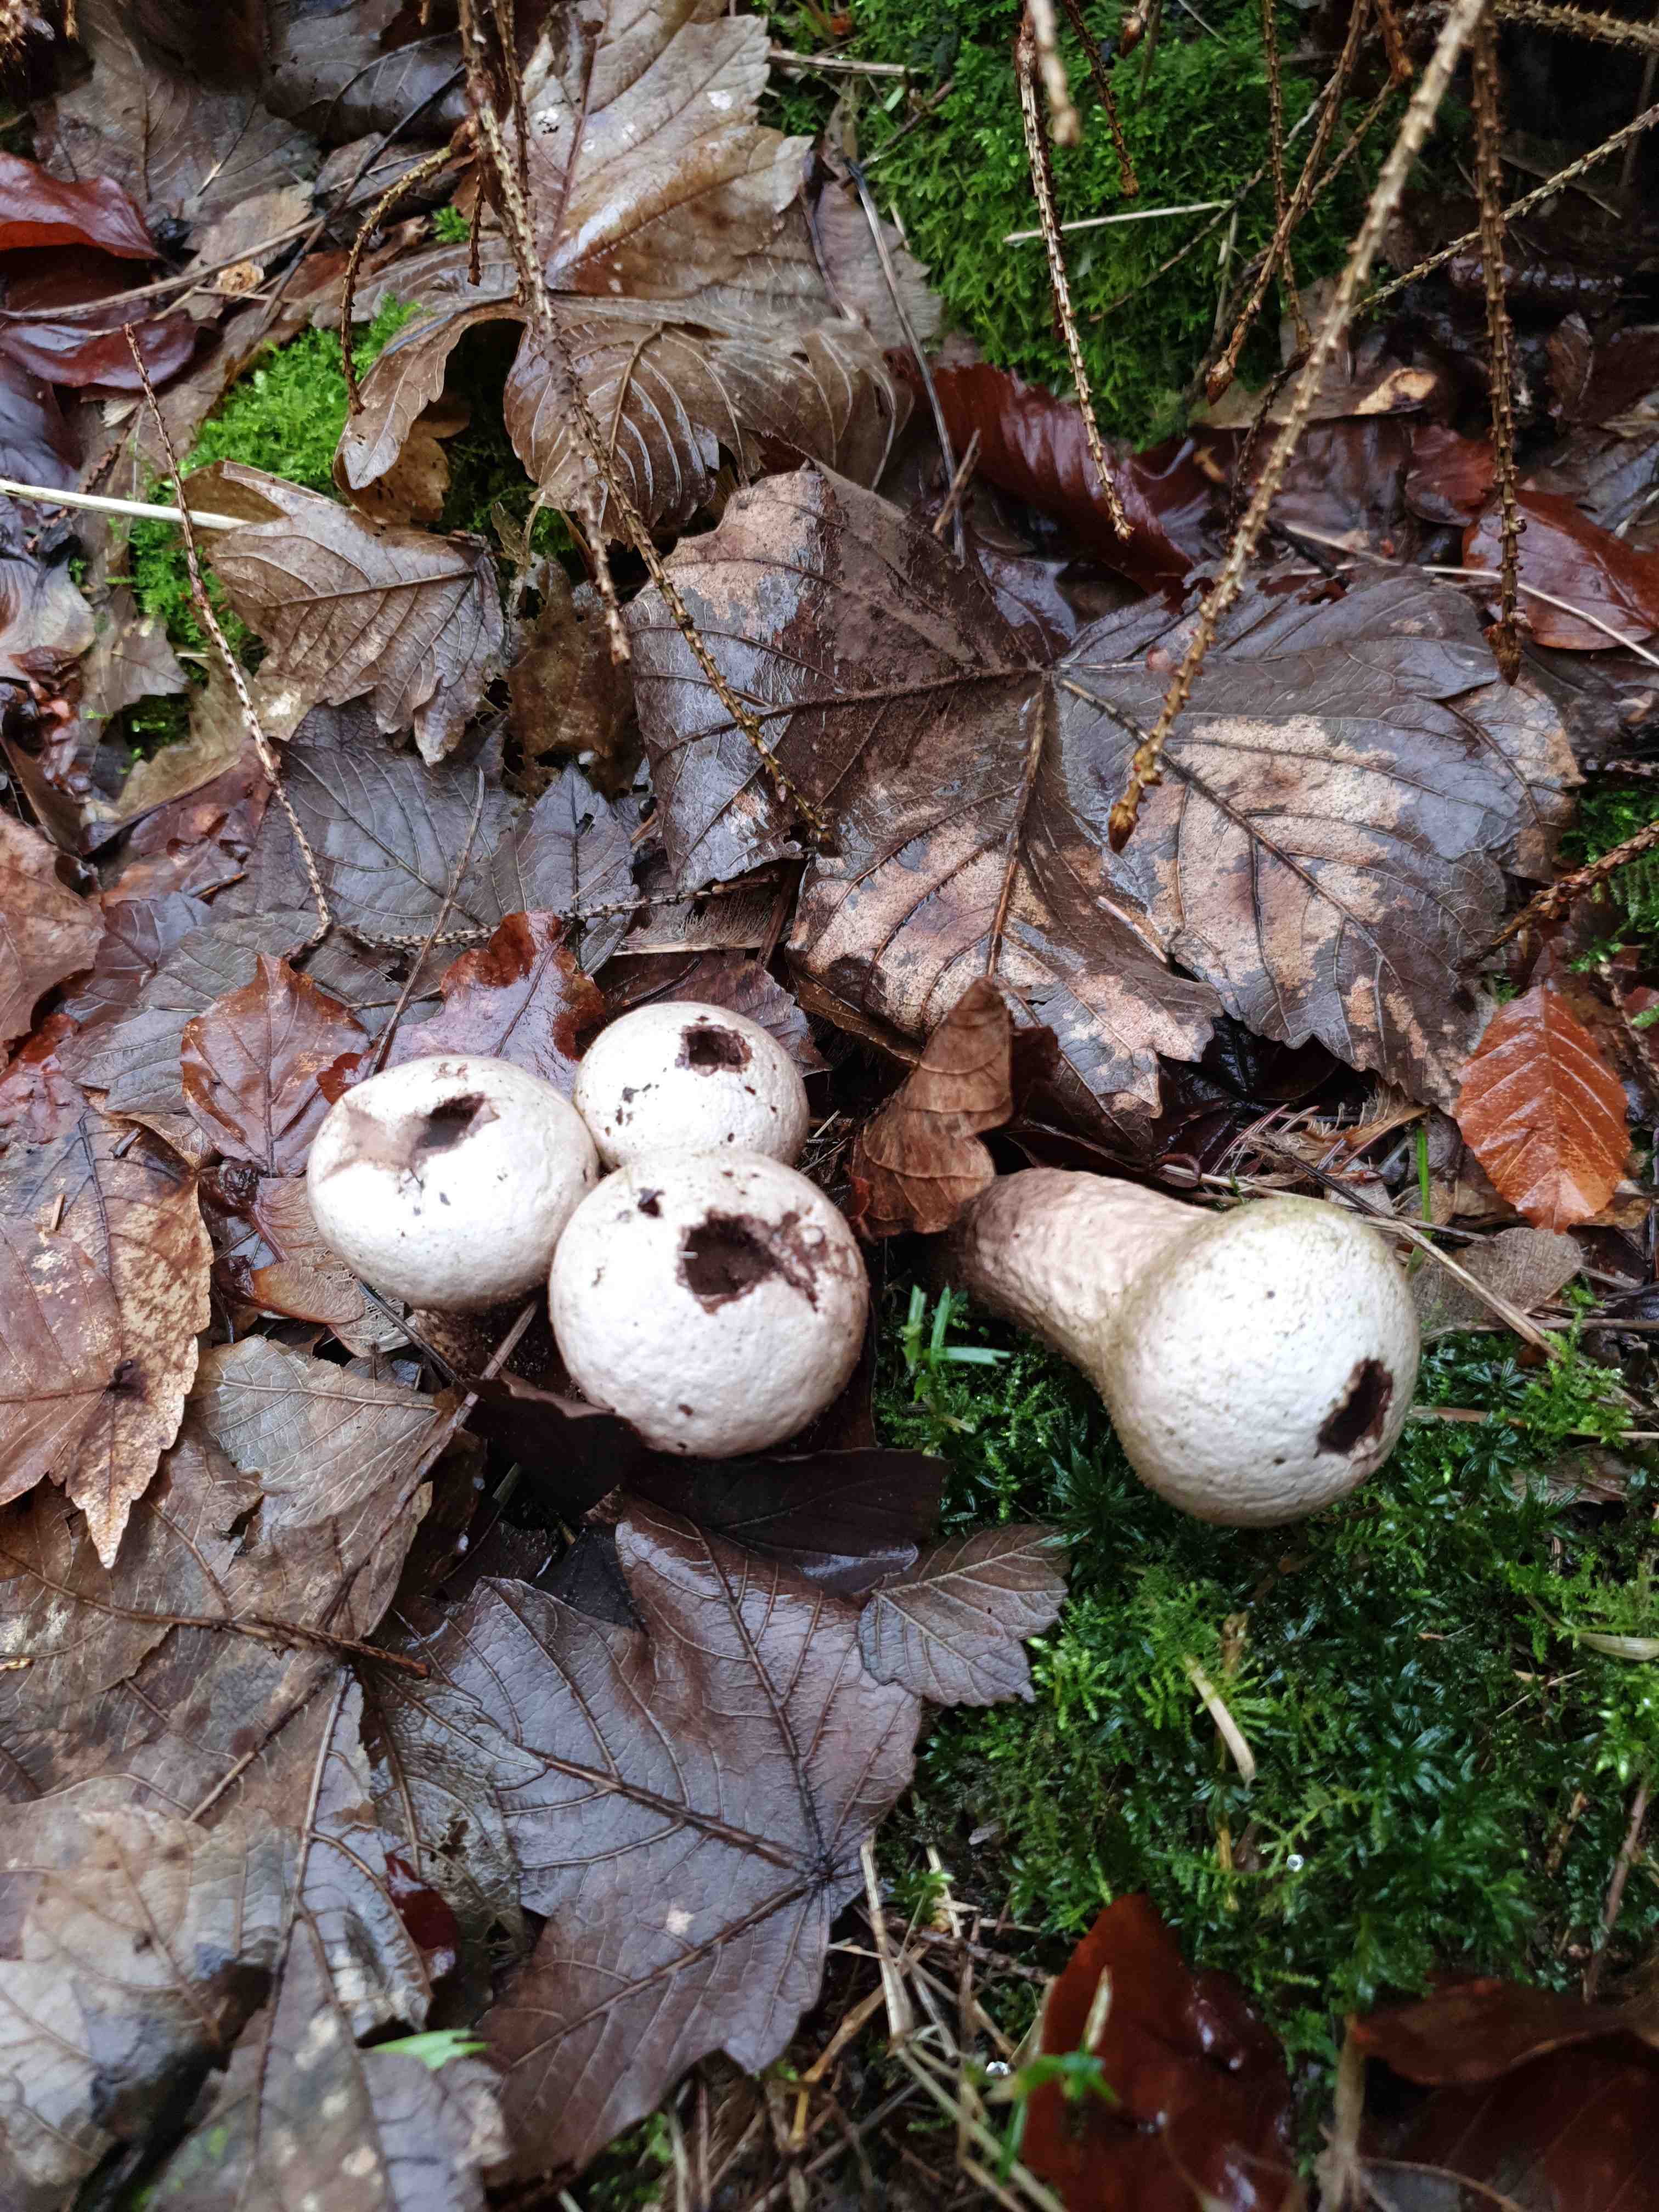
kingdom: Fungi
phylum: Basidiomycota
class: Agaricomycetes
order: Agaricales
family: Lycoperdaceae
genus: Lycoperdon
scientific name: Lycoperdon perlatum
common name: krystal-støvbold
